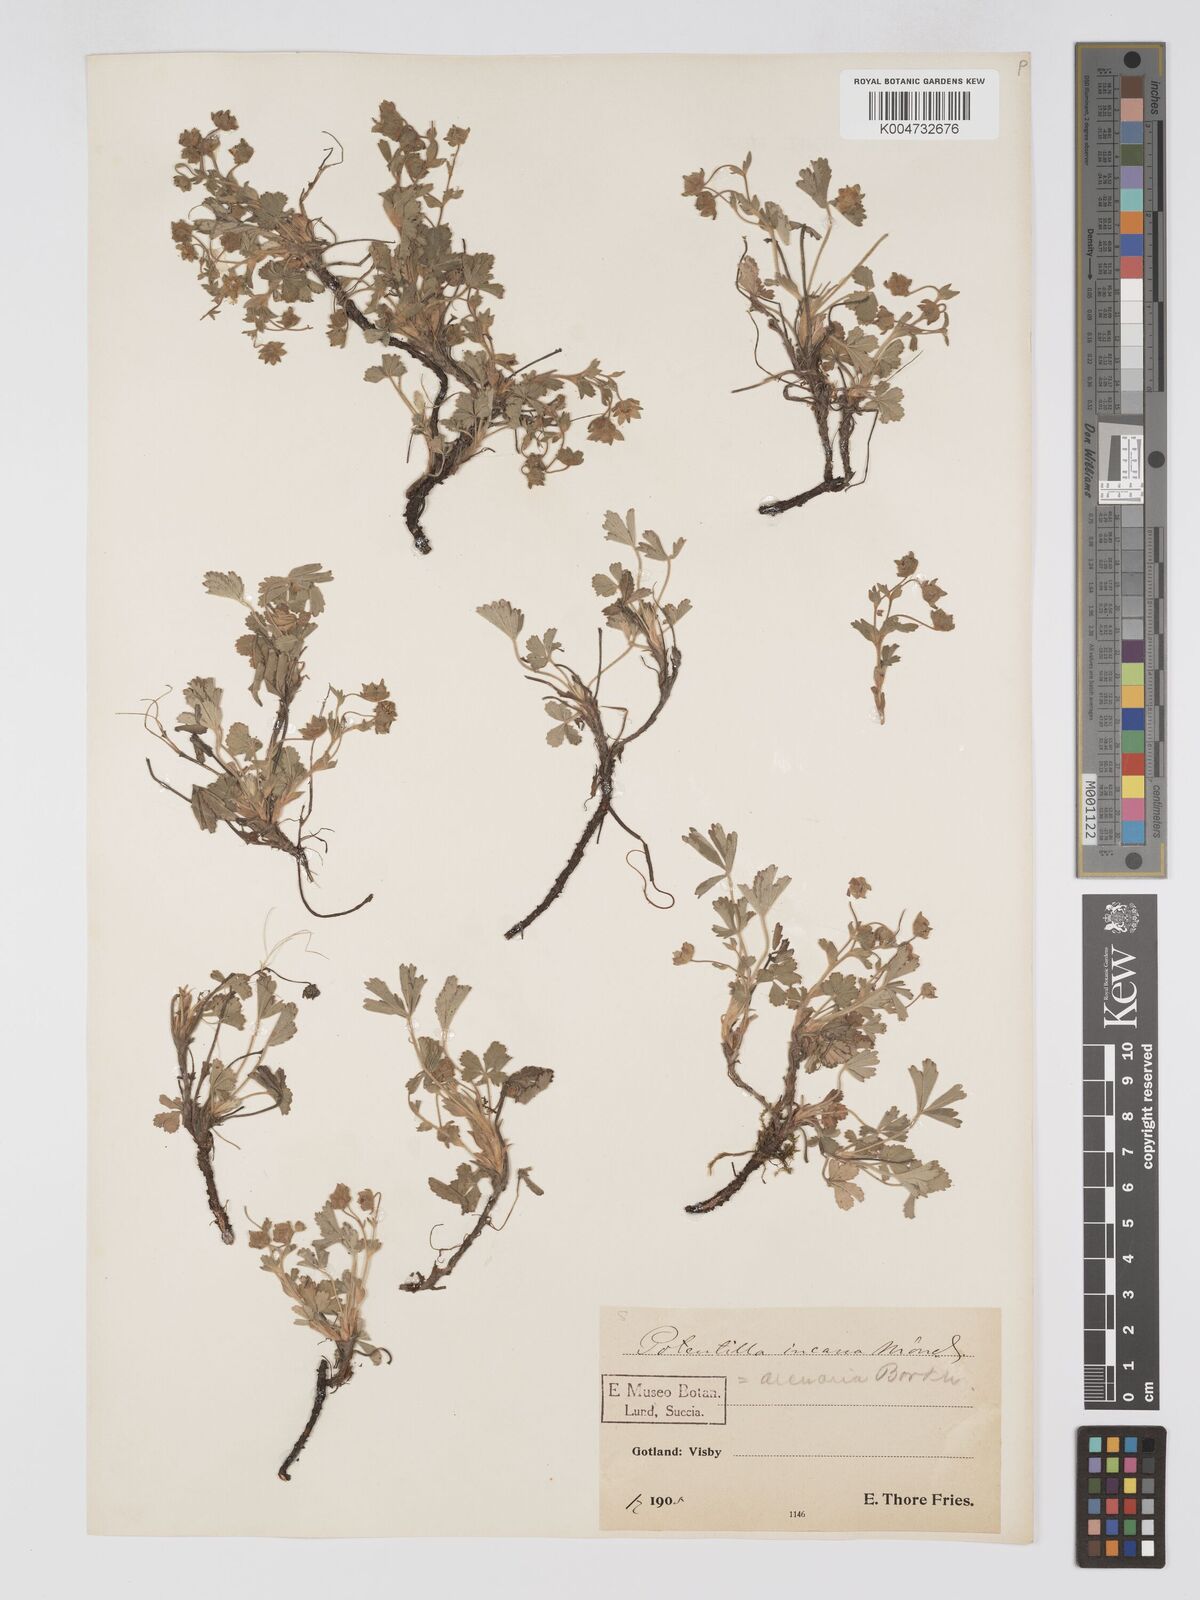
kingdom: Plantae
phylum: Tracheophyta
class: Magnoliopsida
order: Rosales
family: Rosaceae
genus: Potentilla
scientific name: Potentilla cinerea
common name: Ashy cinquefoil
